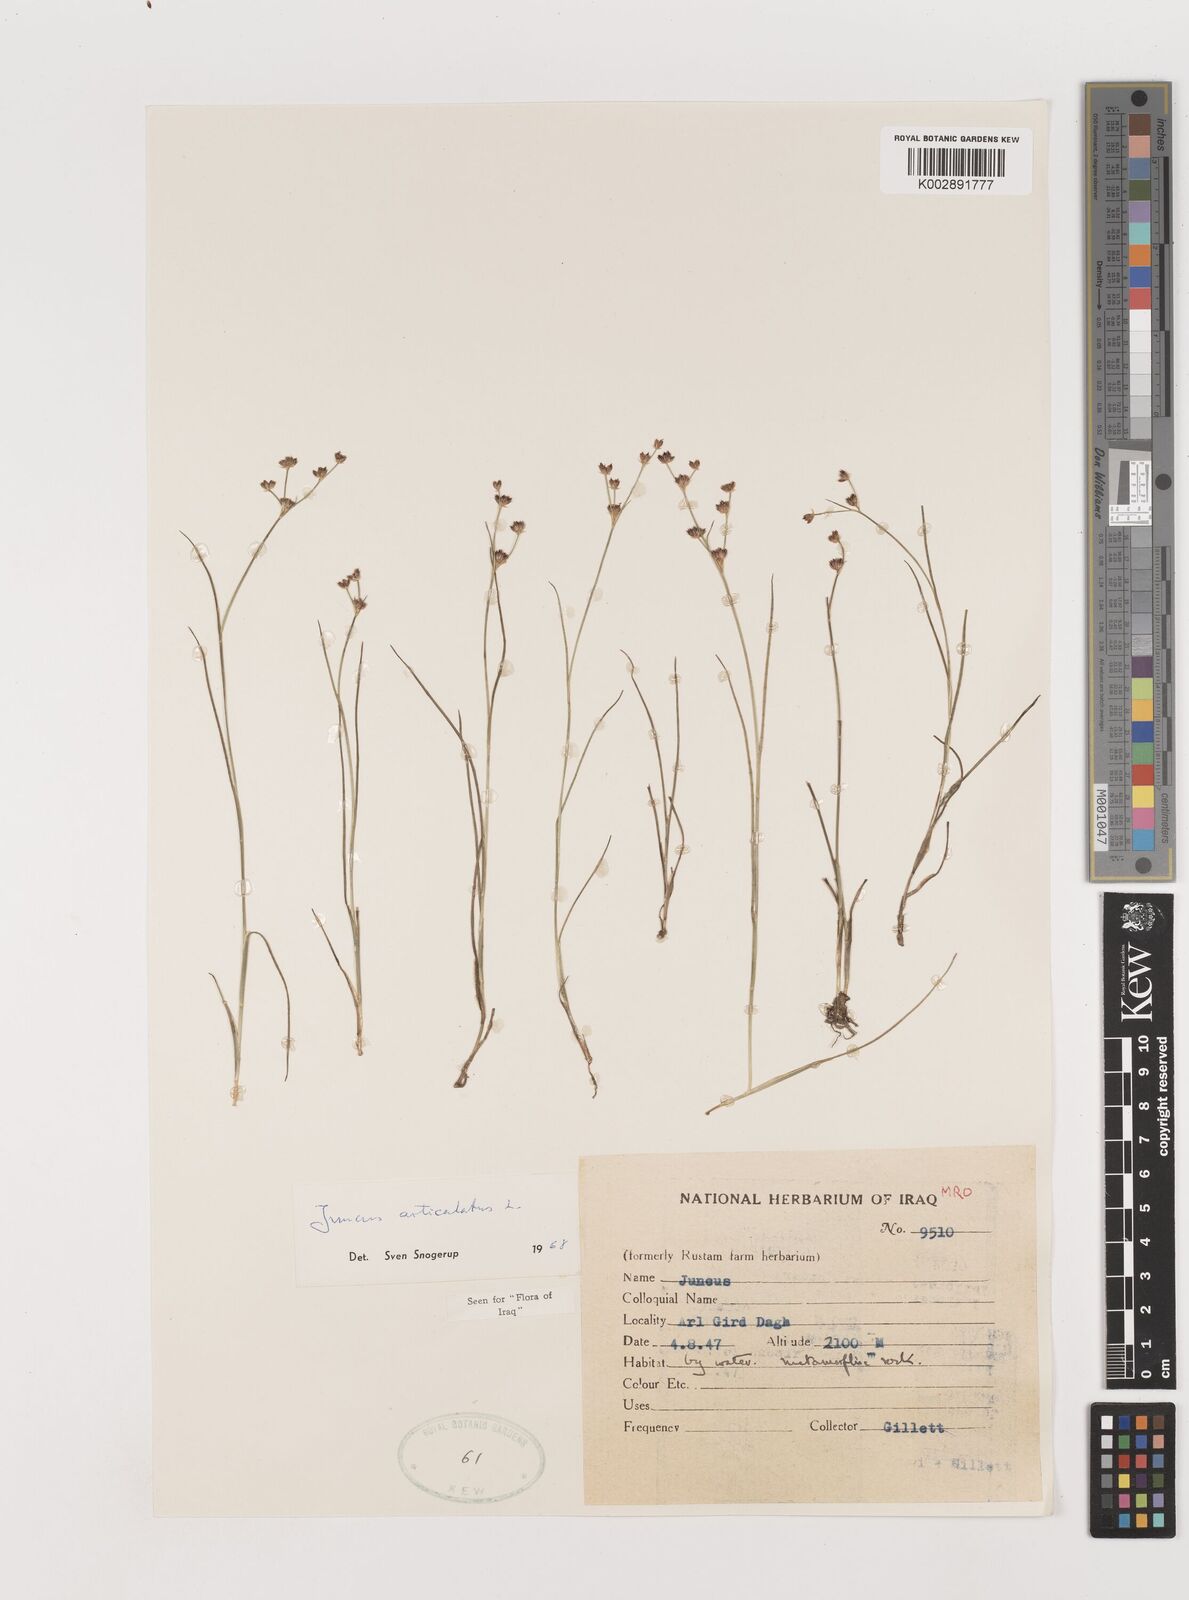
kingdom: Plantae
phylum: Tracheophyta
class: Liliopsida
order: Poales
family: Juncaceae
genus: Juncus
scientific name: Juncus articulatus
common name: Jointed rush
